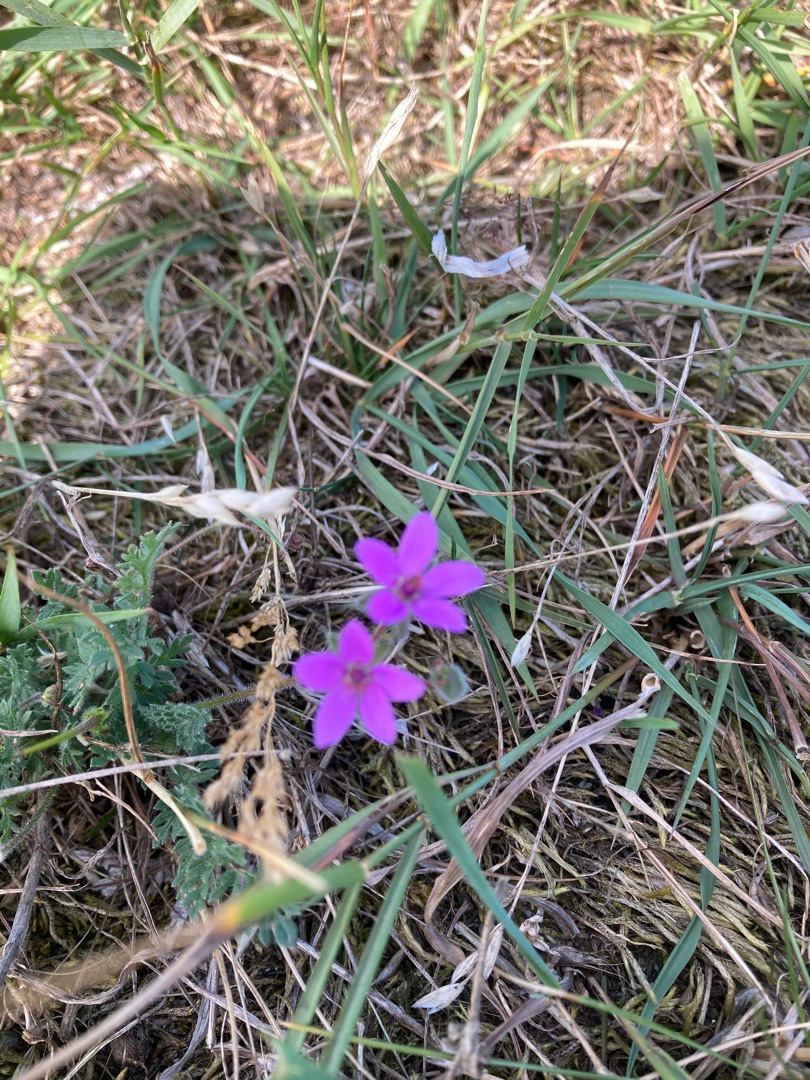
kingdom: Plantae
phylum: Tracheophyta
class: Magnoliopsida
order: Geraniales
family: Geraniaceae
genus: Erodium
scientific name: Erodium cicutarium
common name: Hejrenæb
